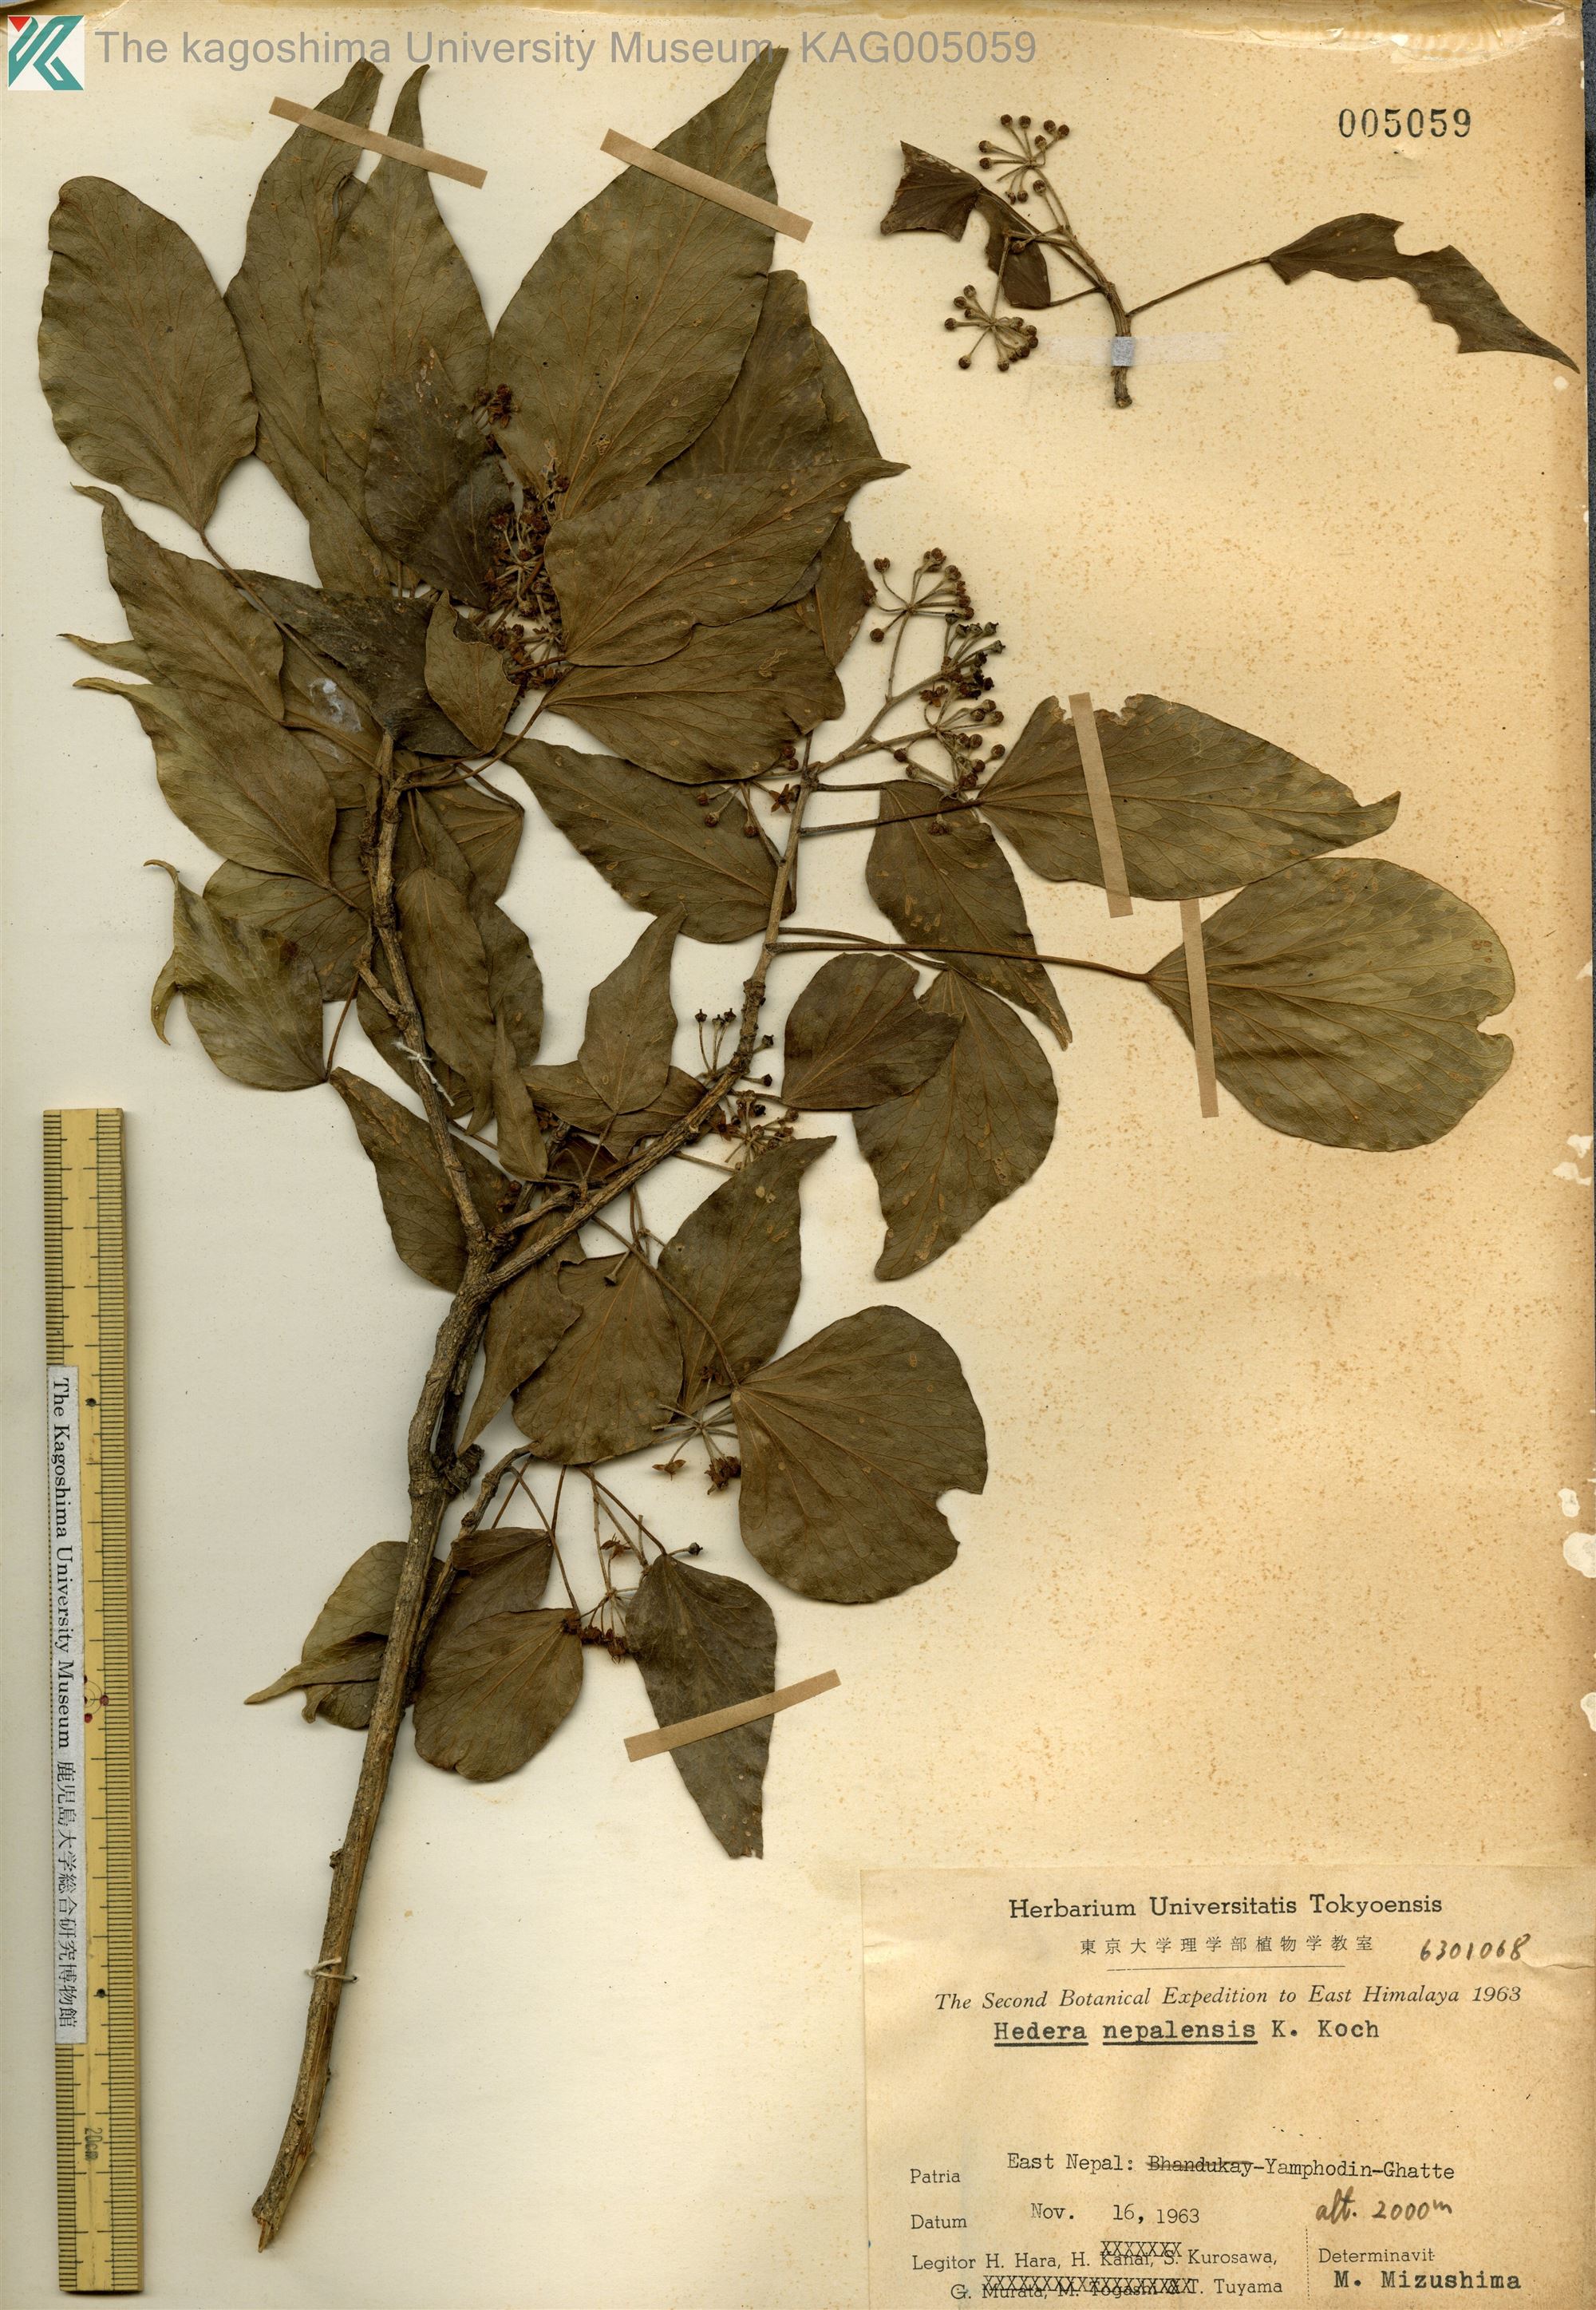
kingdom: Plantae
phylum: Tracheophyta
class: Magnoliopsida
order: Apiales
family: Araliaceae
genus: Hedera
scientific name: Hedera nepalensis
